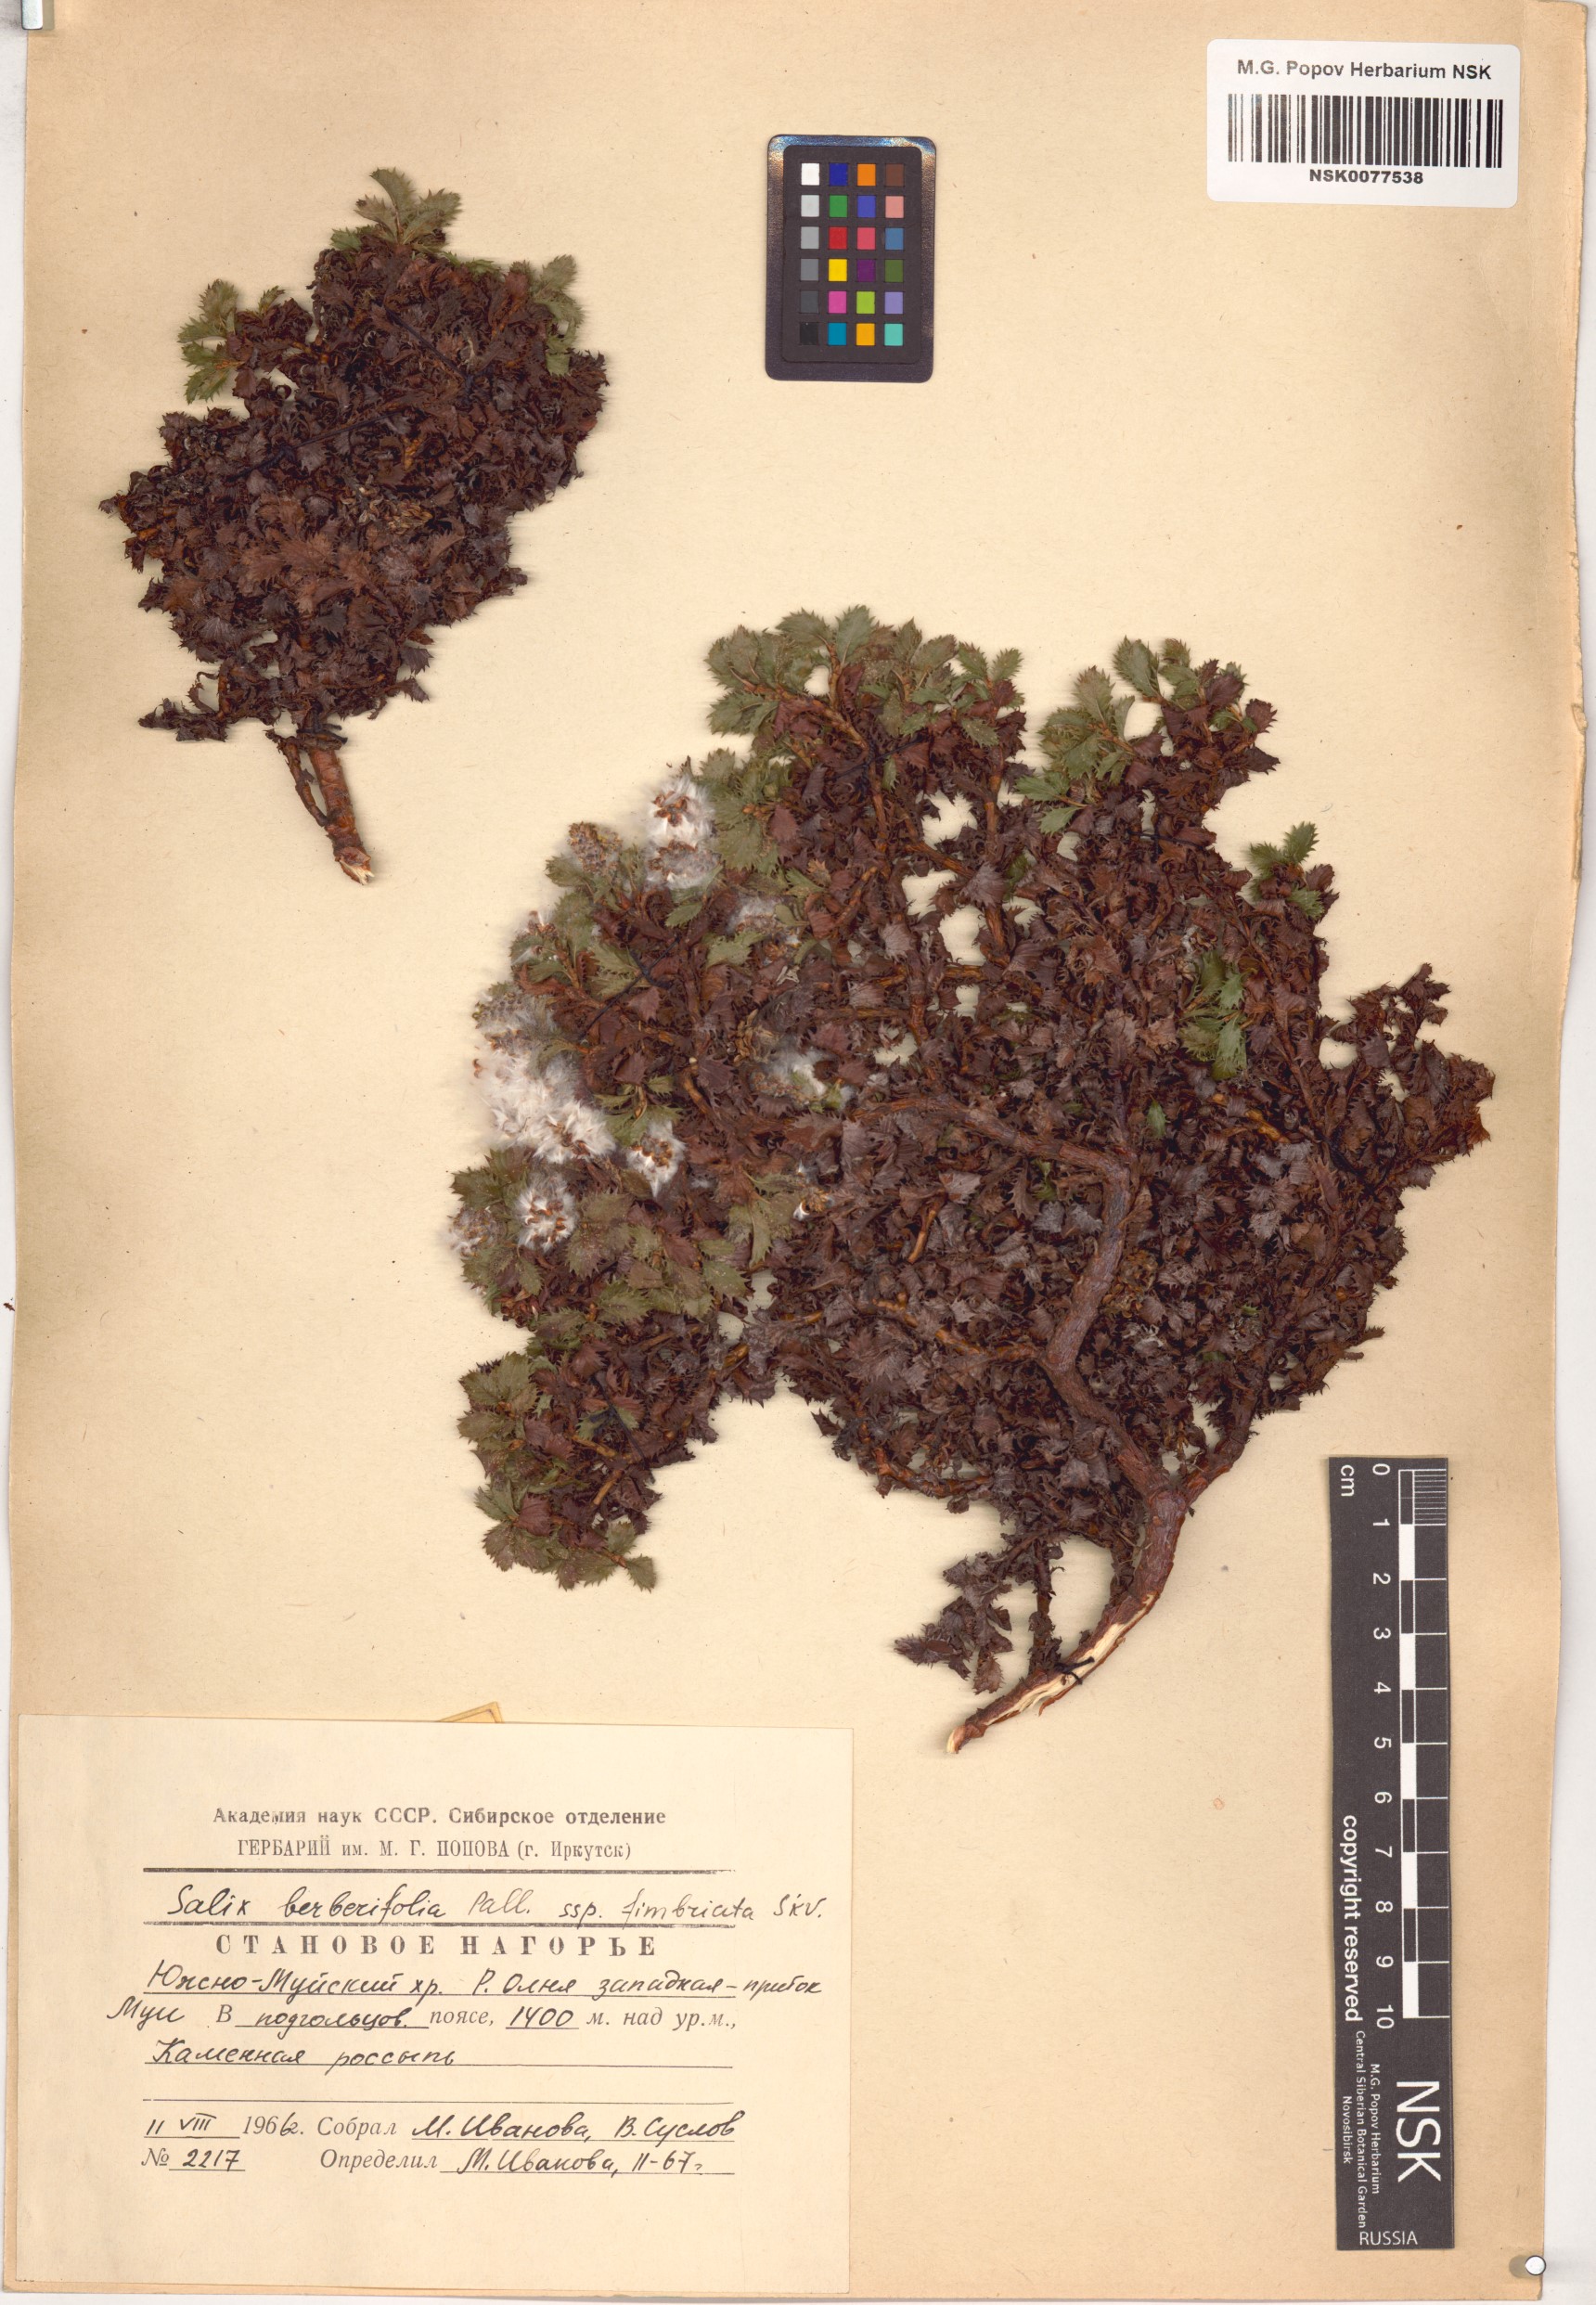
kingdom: Plantae
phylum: Tracheophyta
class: Magnoliopsida
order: Malpighiales
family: Salicaceae
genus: Salix
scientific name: Salix berberifolia
